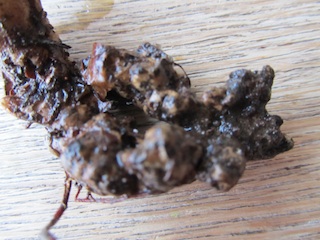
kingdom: Fungi
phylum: Basidiomycota
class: Agaricomycetes
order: Polyporales
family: Polyporaceae
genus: Polyporus
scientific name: Polyporus tuberaster
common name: knoldet stilkporesvamp
